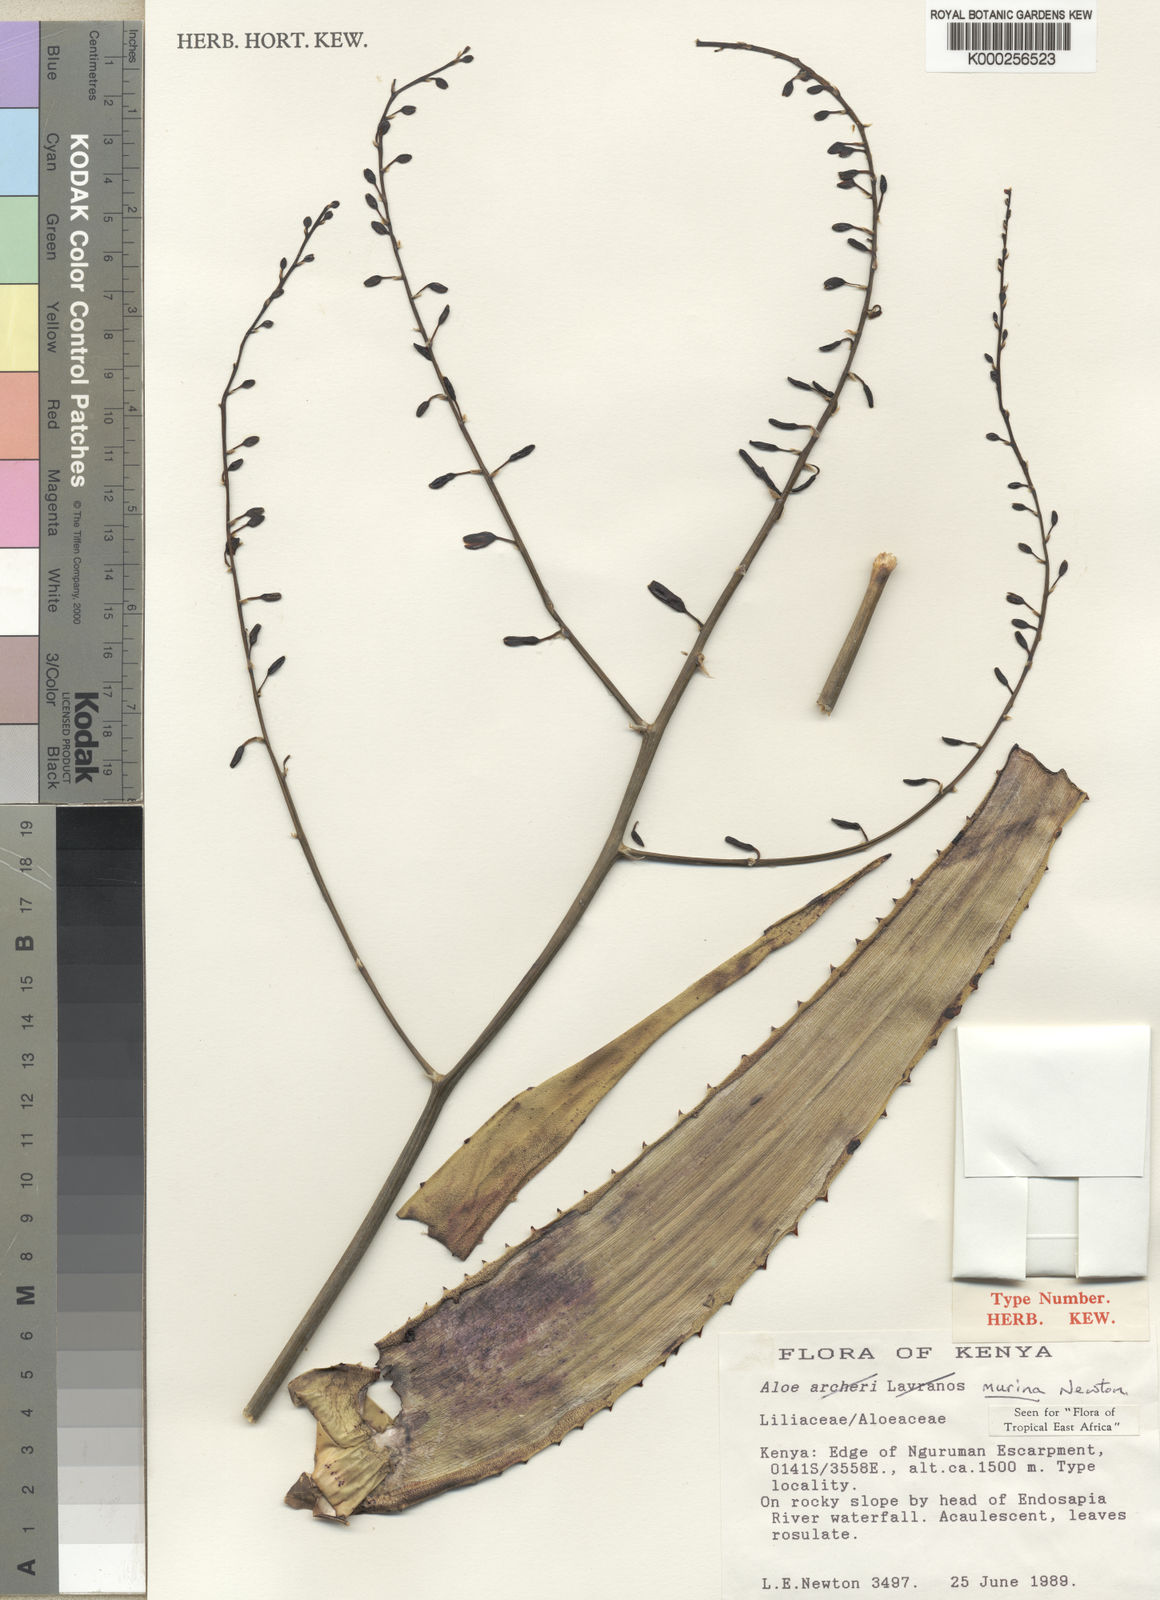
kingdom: Plantae
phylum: Tracheophyta
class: Liliopsida
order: Asparagales
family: Asphodelaceae
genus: Aloe
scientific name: Aloe murina
